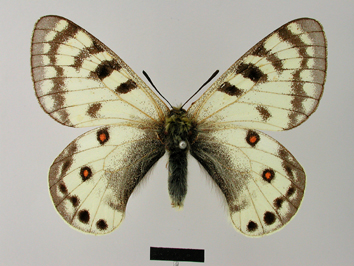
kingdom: Animalia
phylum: Arthropoda
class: Insecta
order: Lepidoptera
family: Papilionidae
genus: Parnassius
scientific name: Parnassius staudingeri
